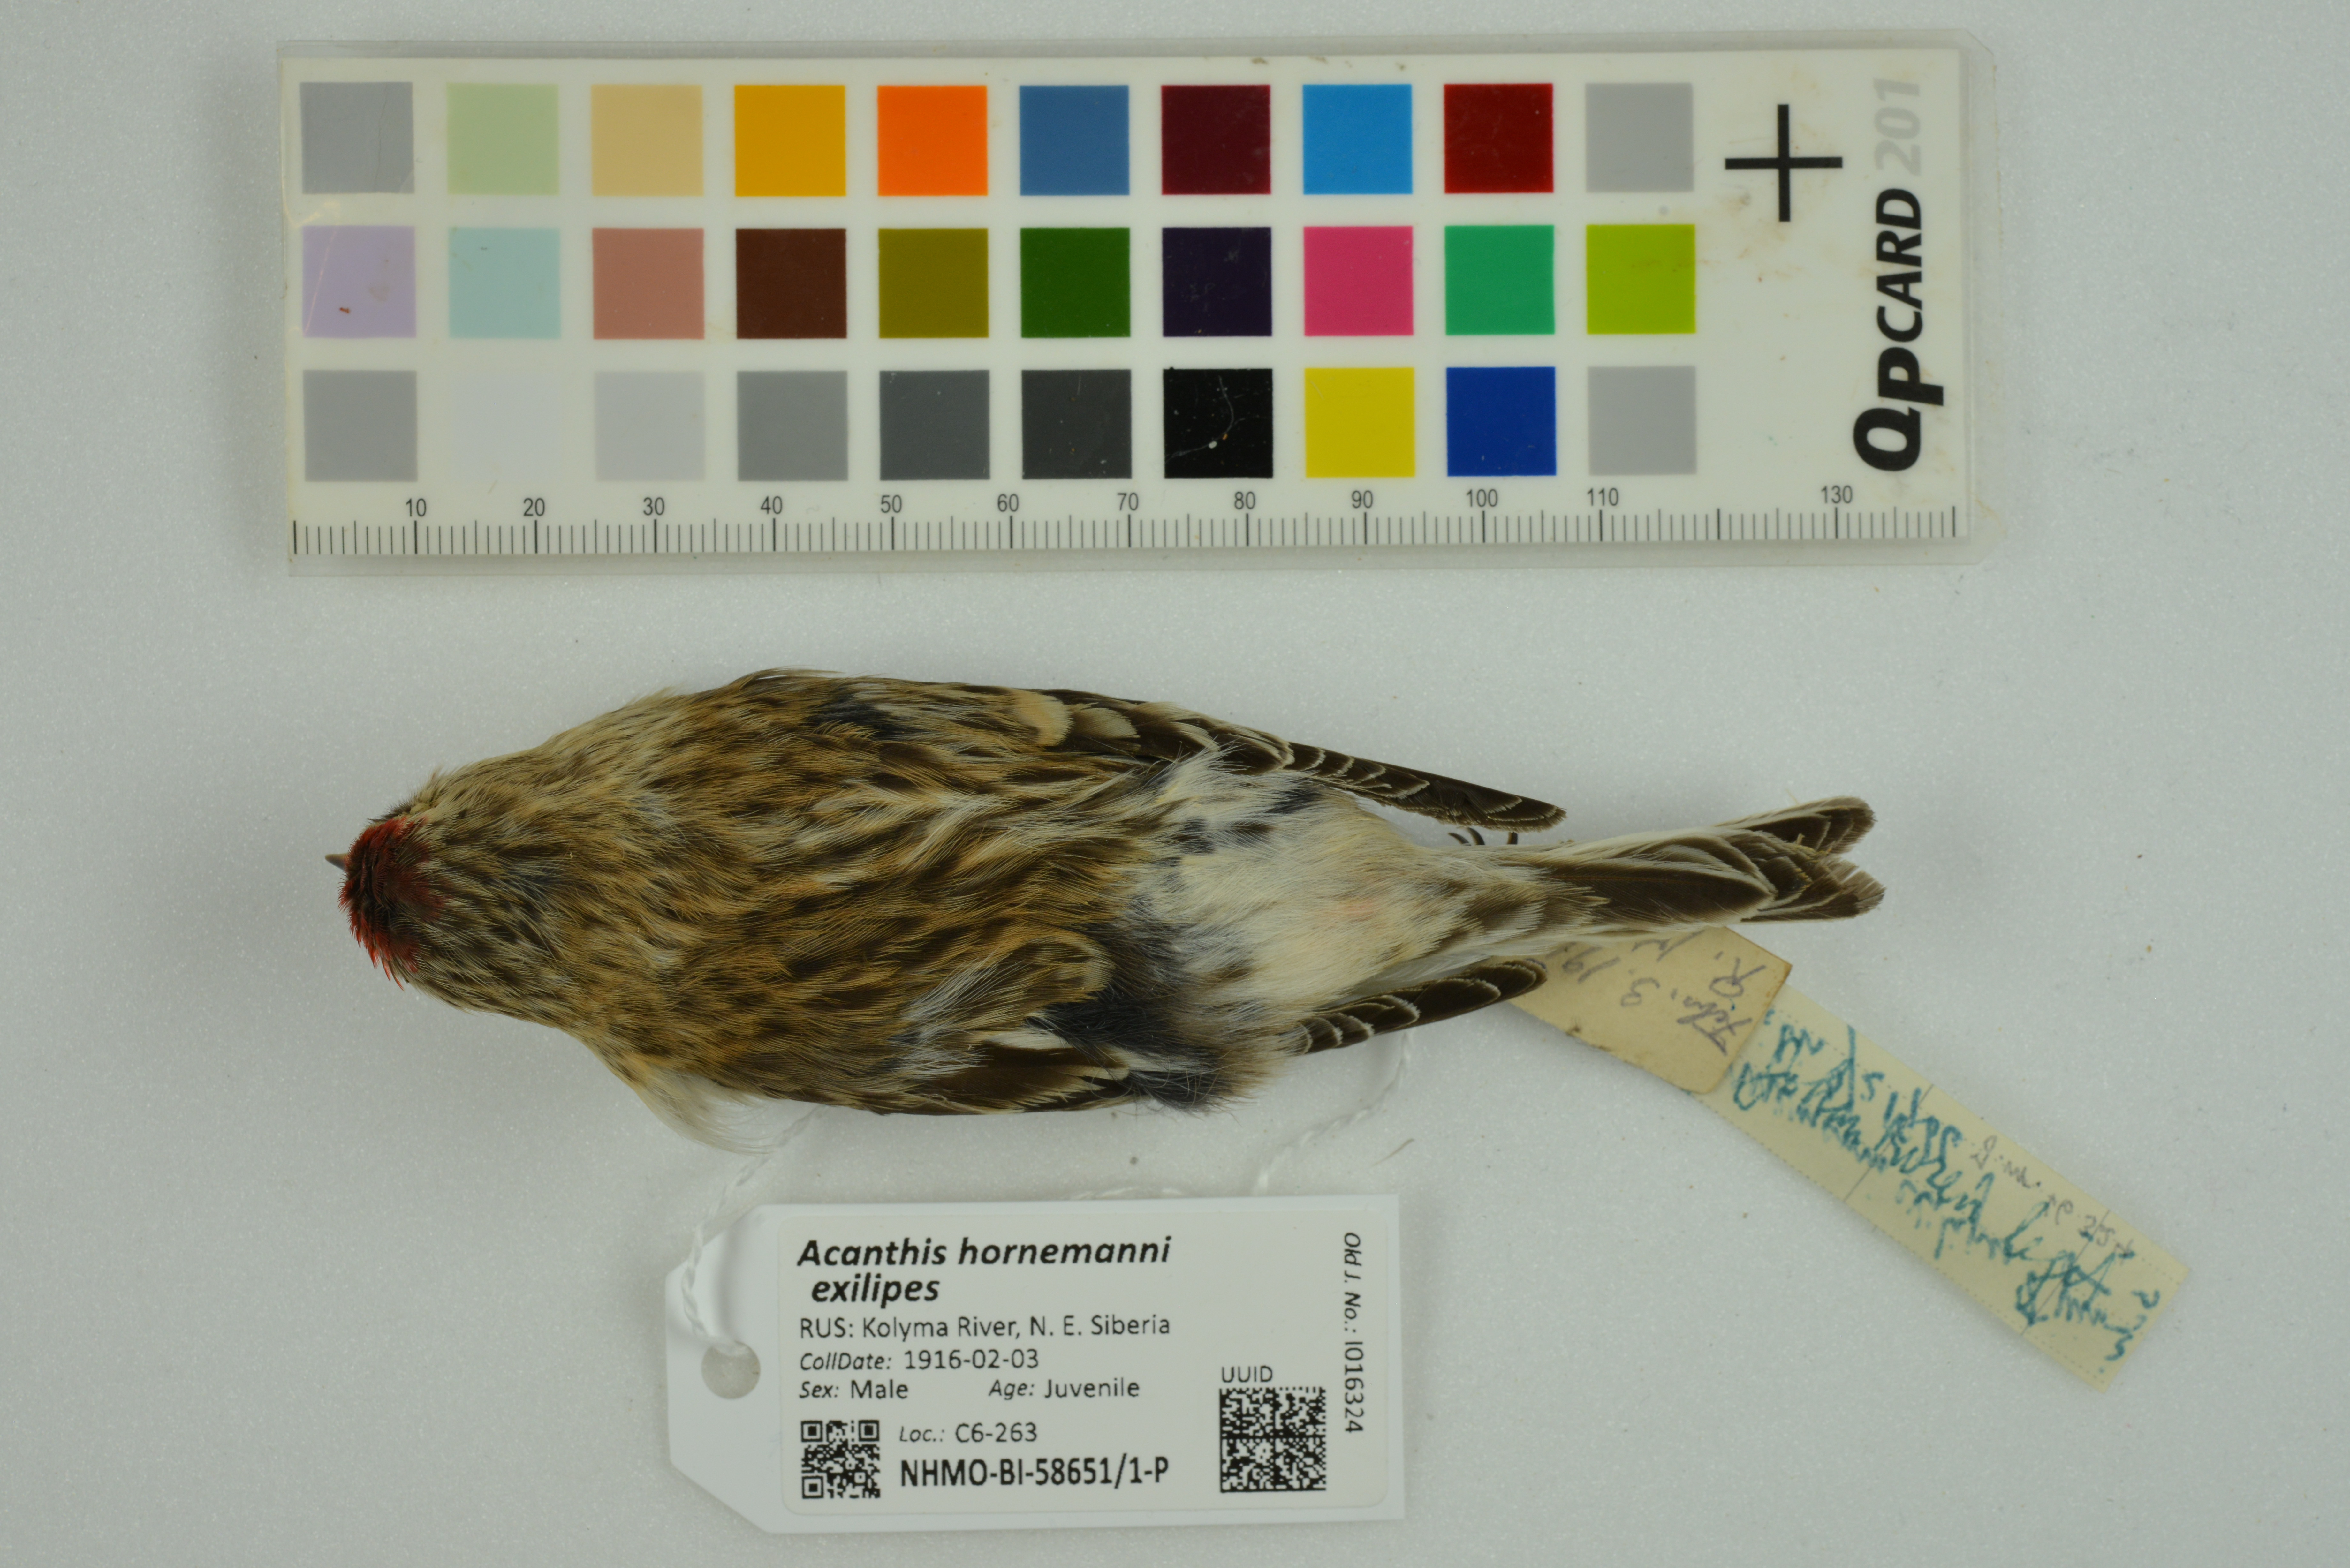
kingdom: Animalia
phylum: Chordata
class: Aves
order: Passeriformes
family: Fringillidae
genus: Acanthis
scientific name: Acanthis hornemanni
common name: Arctic redpoll
